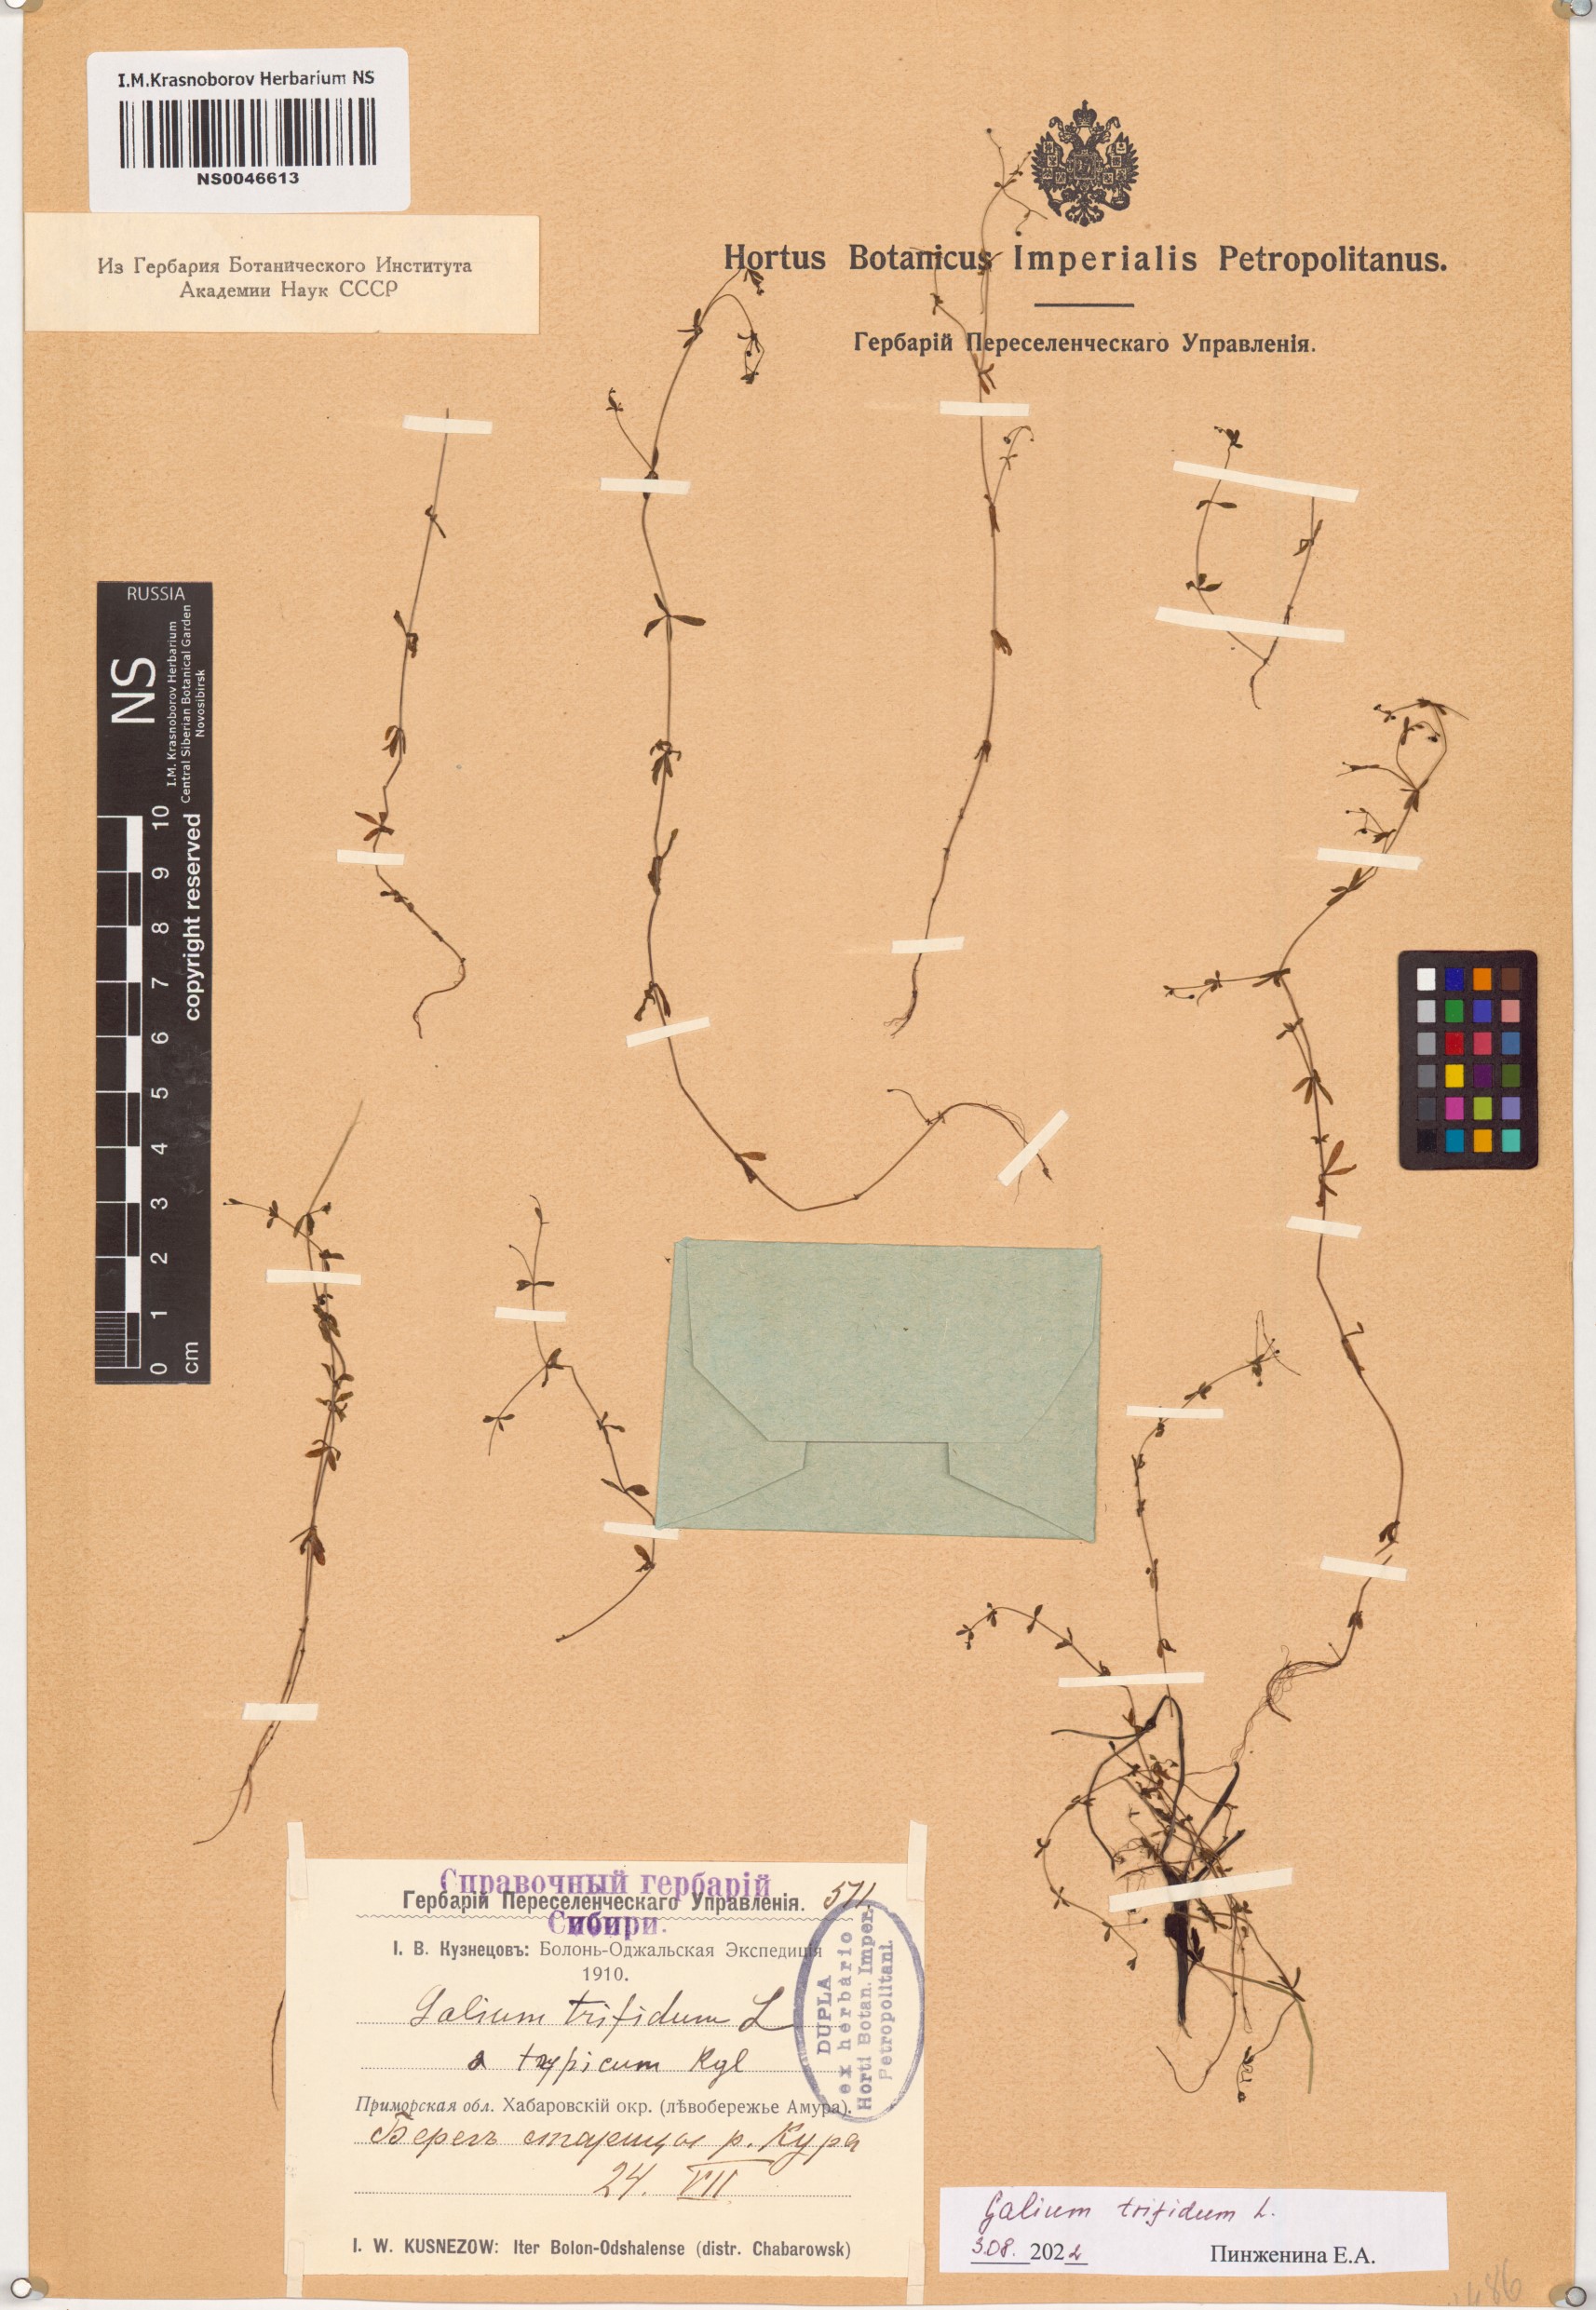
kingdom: Plantae
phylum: Tracheophyta
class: Magnoliopsida
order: Gentianales
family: Rubiaceae
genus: Galium
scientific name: Galium trifidum
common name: Small bedstraw
